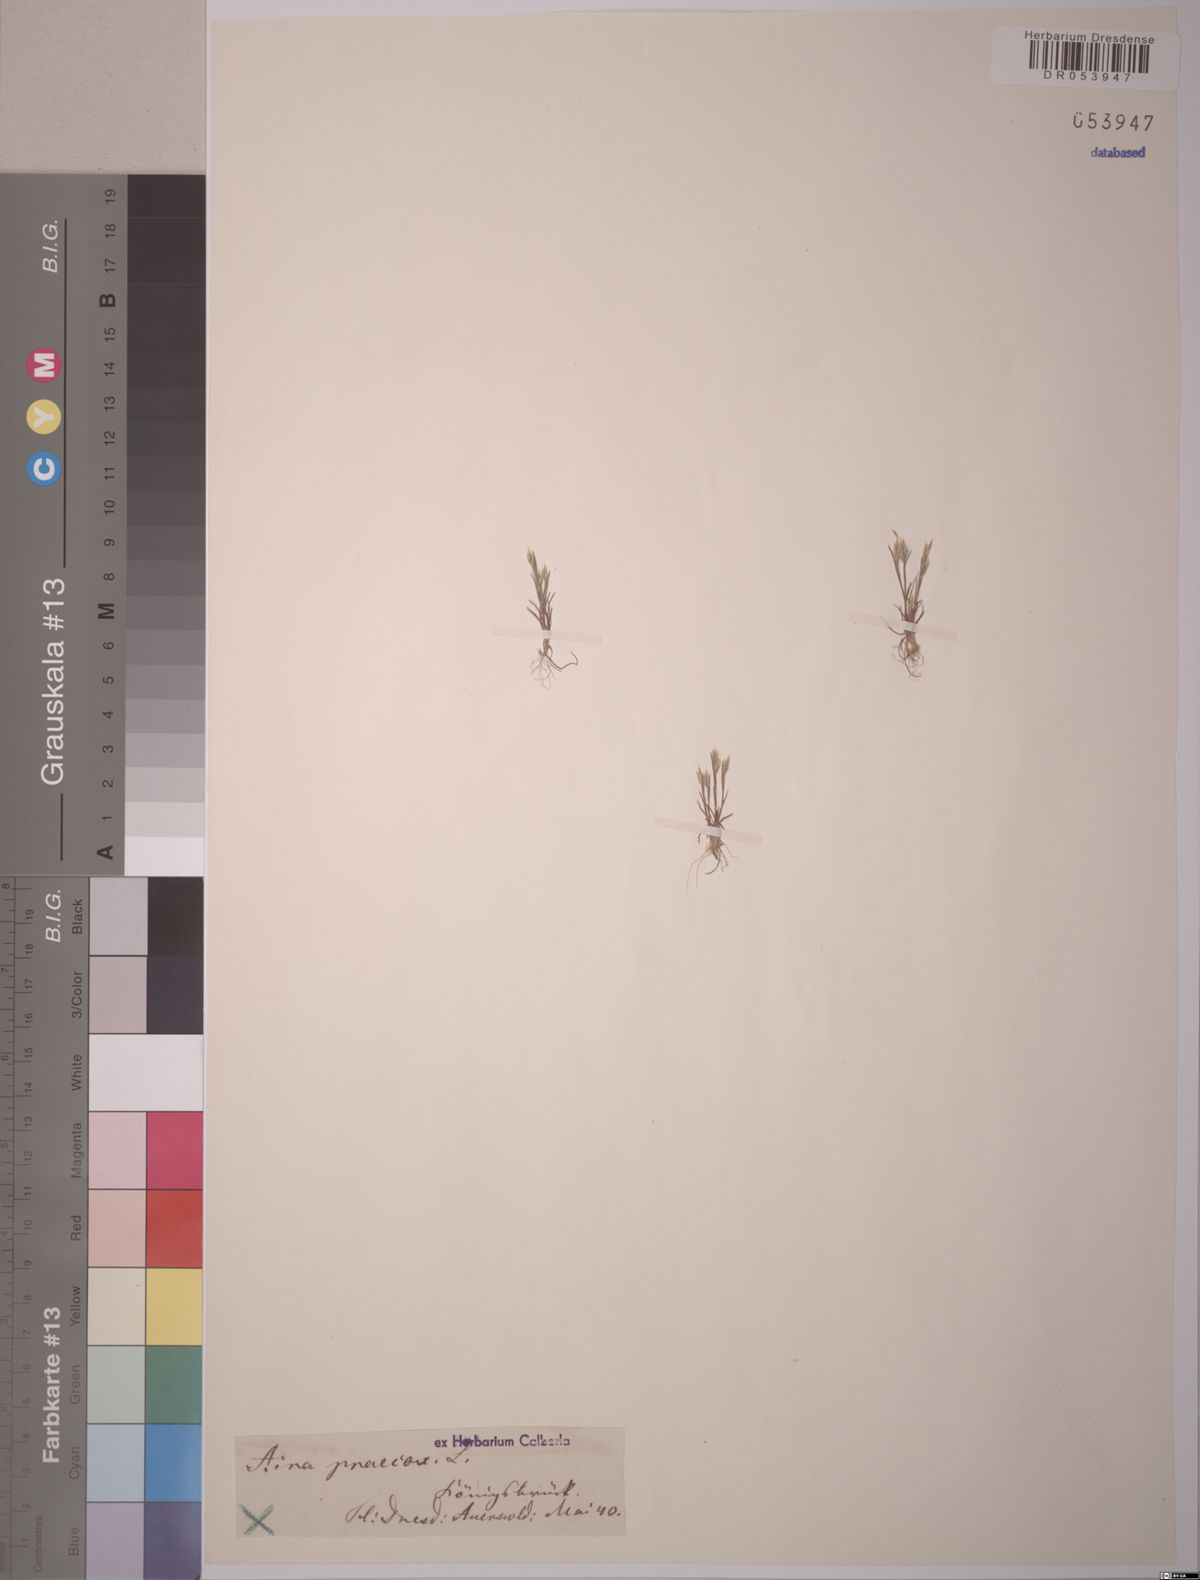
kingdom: Plantae
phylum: Tracheophyta
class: Liliopsida
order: Poales
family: Poaceae
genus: Aira
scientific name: Aira praecox
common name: Early hair-grass
